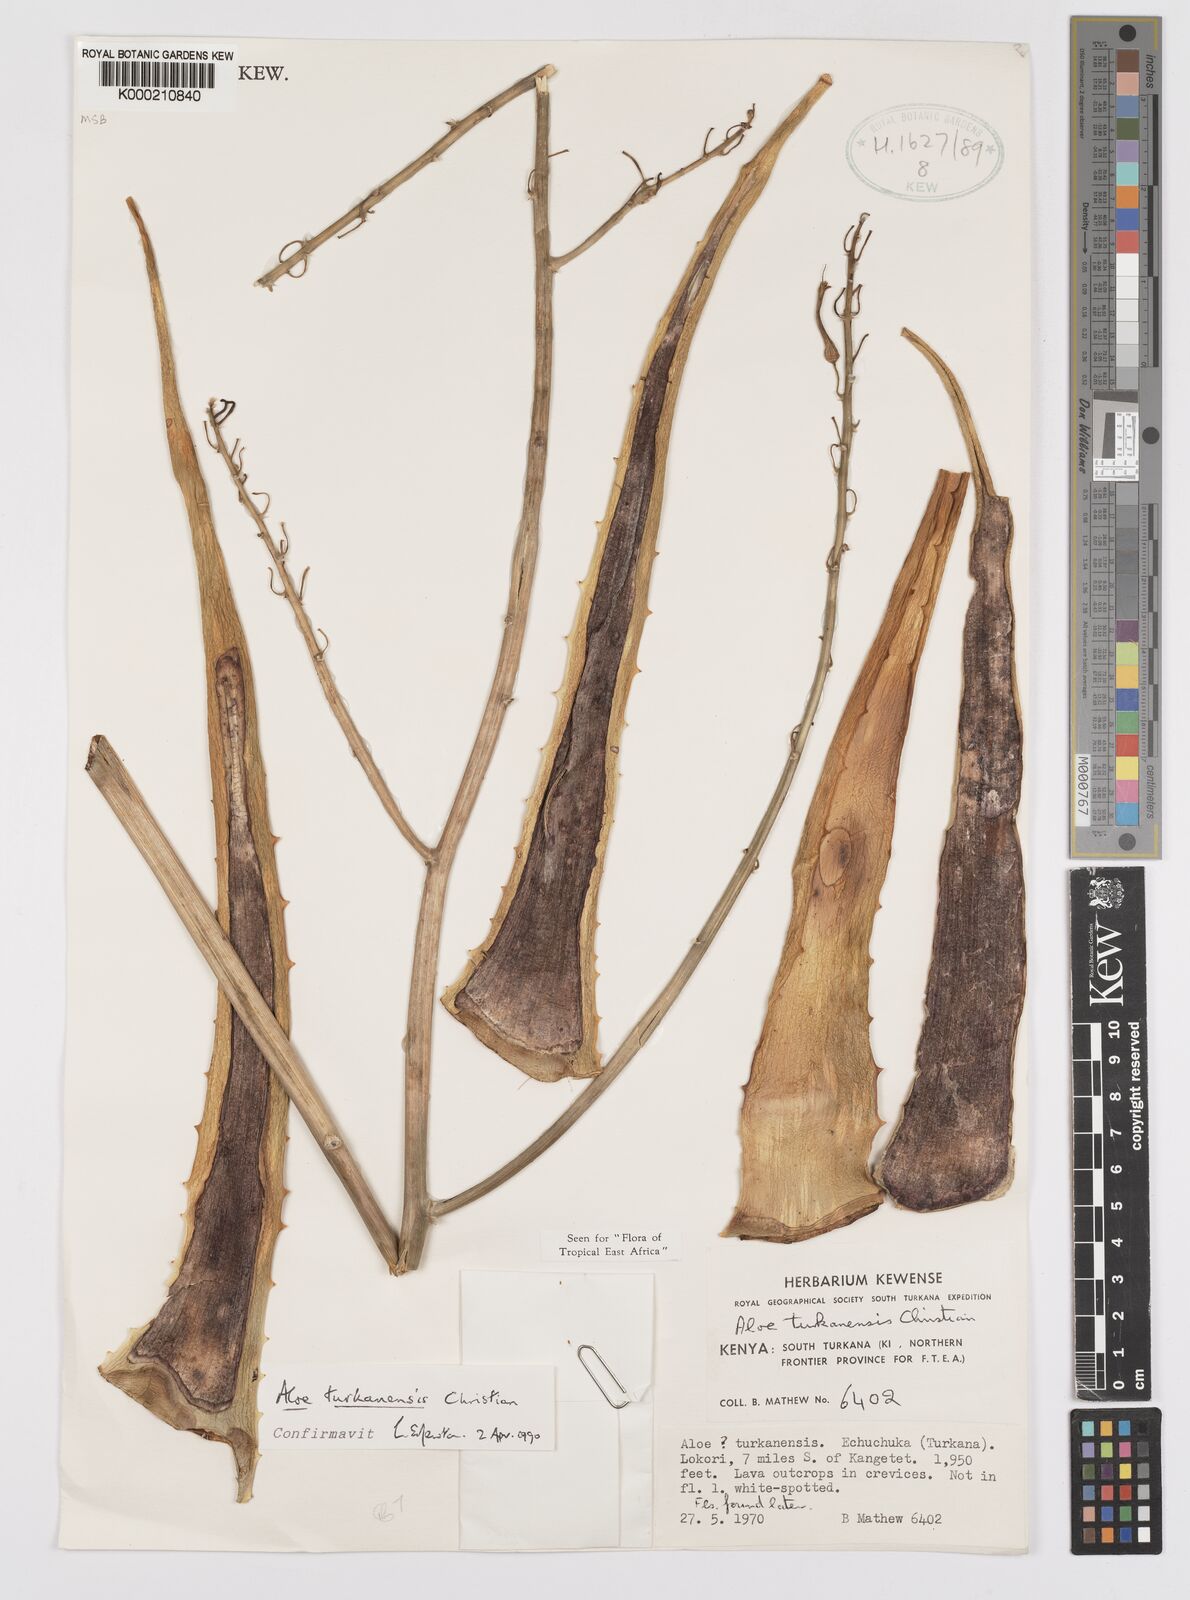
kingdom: Plantae
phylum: Tracheophyta
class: Liliopsida
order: Asparagales
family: Asphodelaceae
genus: Aloe
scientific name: Aloe turkanensis
